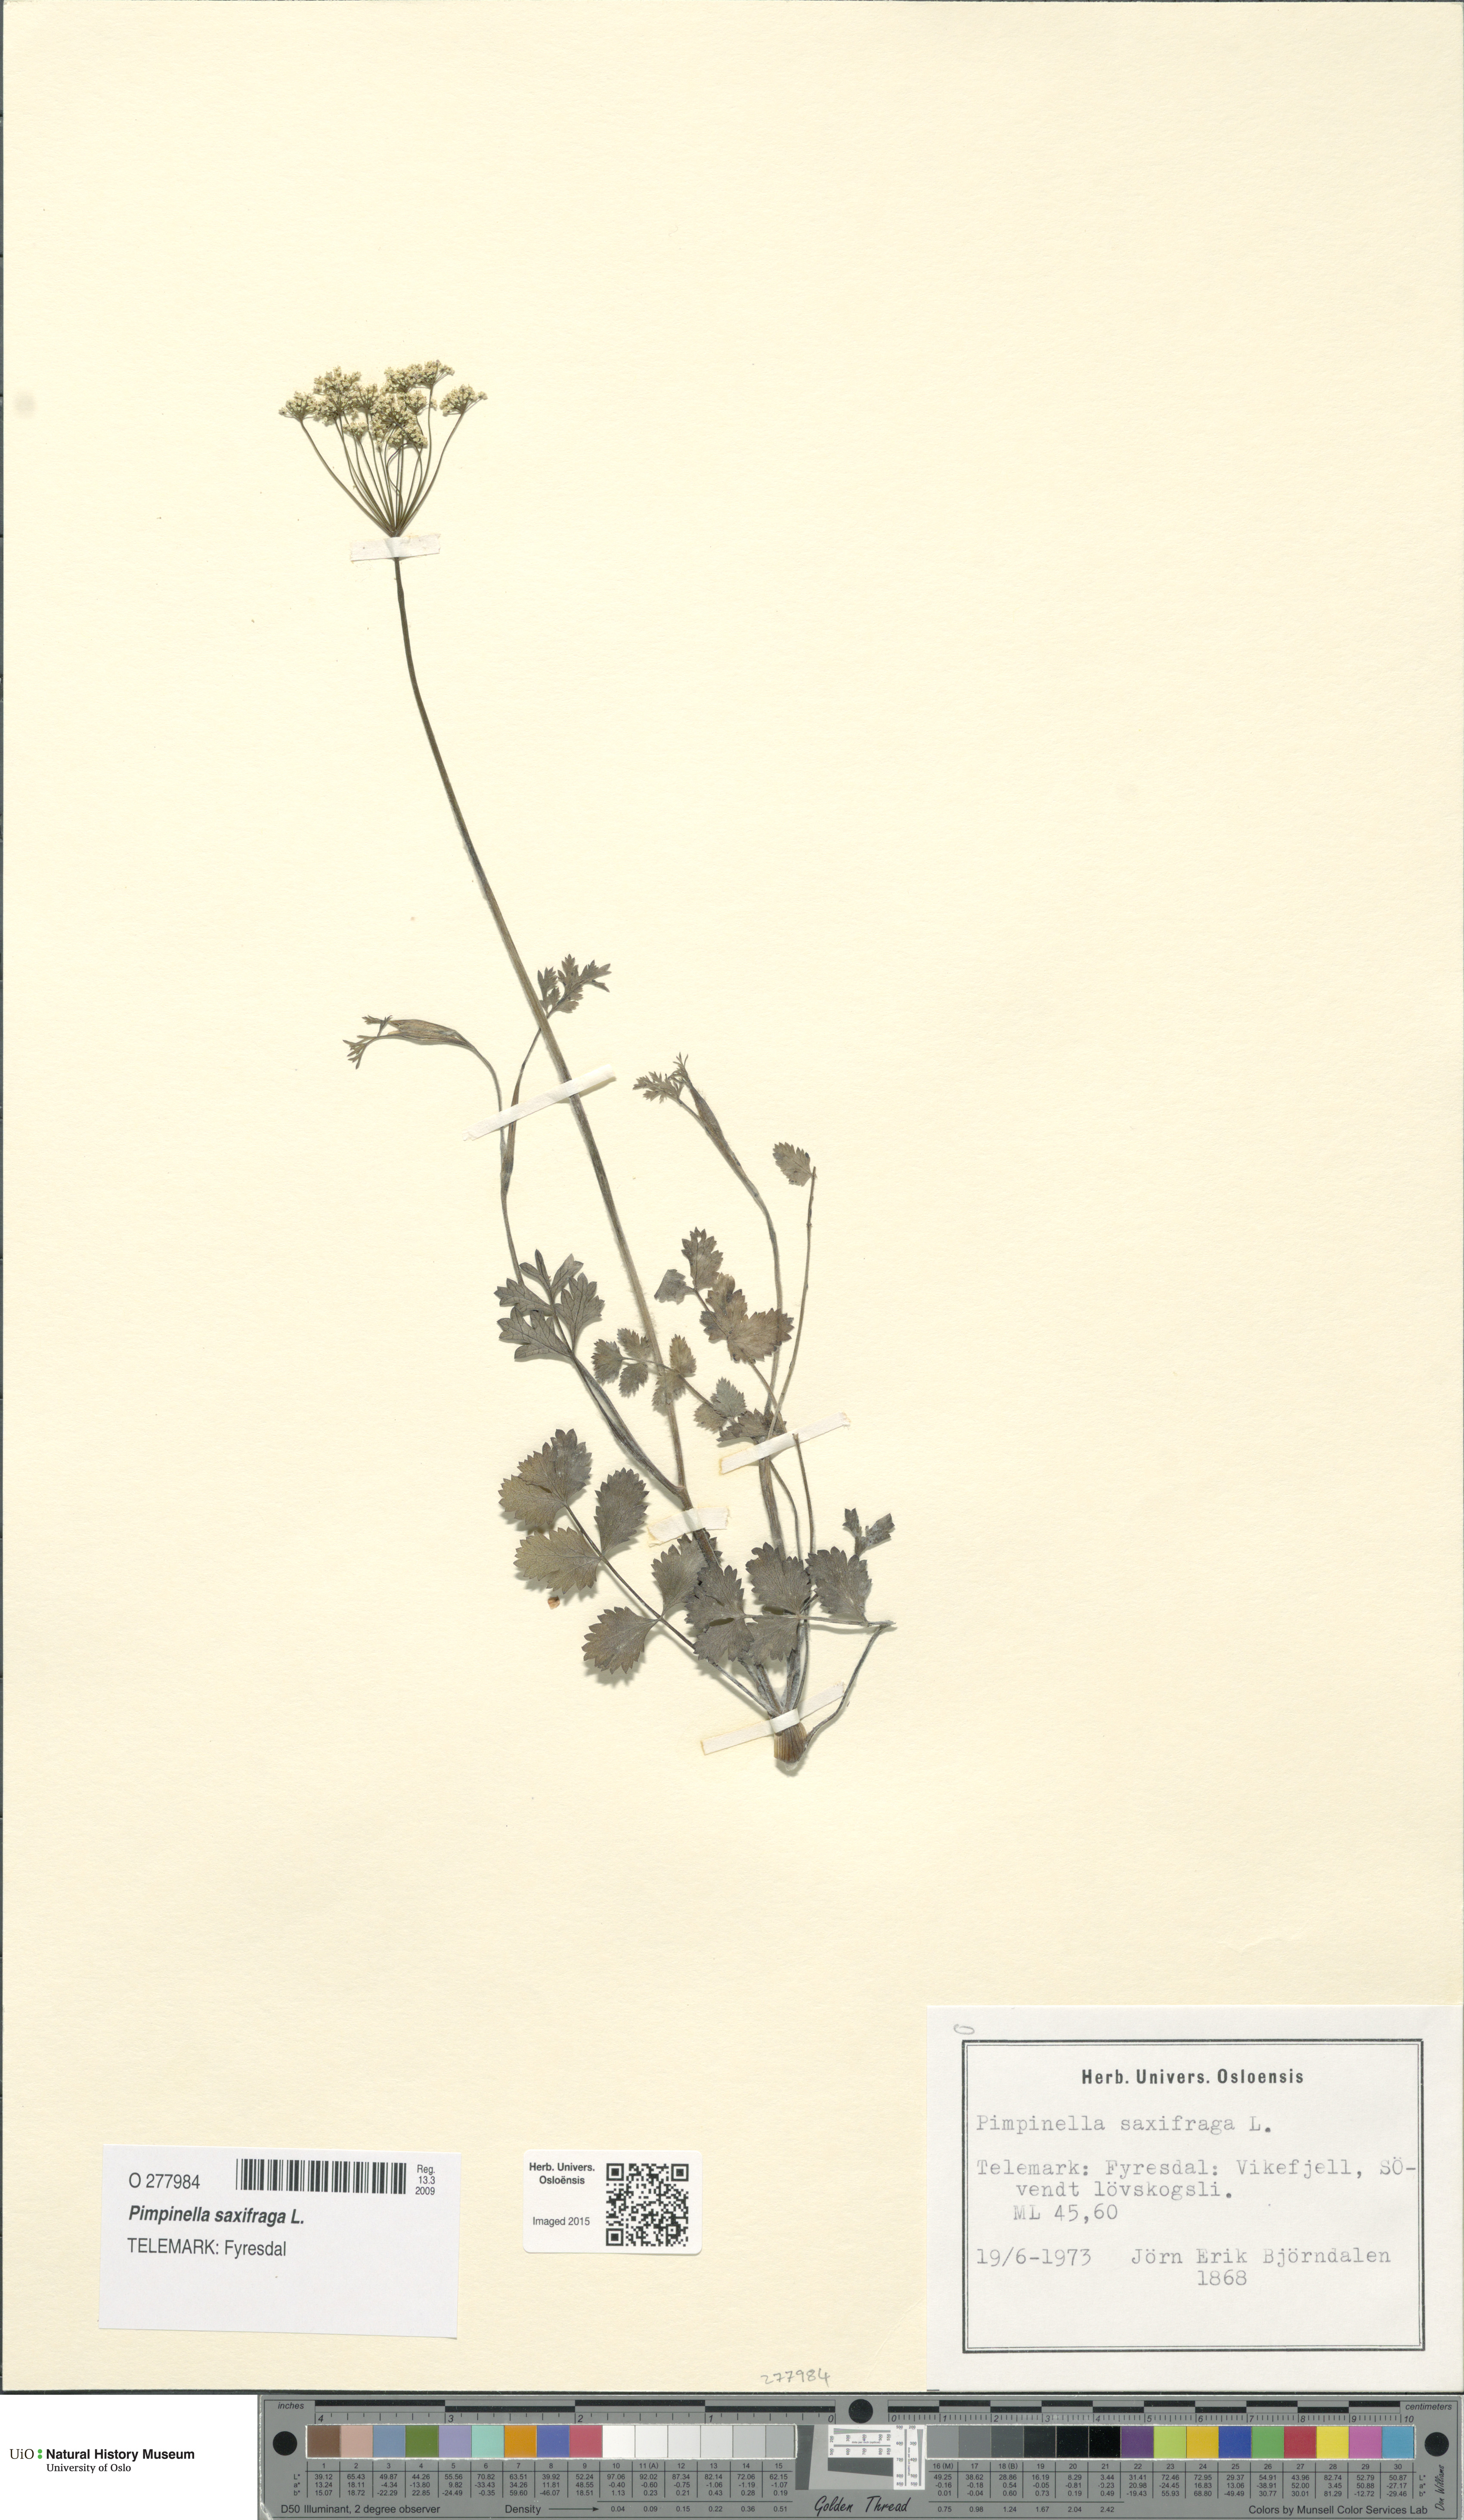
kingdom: Plantae
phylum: Tracheophyta
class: Magnoliopsida
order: Apiales
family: Apiaceae
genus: Pimpinella
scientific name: Pimpinella saxifraga
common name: Burnet-saxifrage
